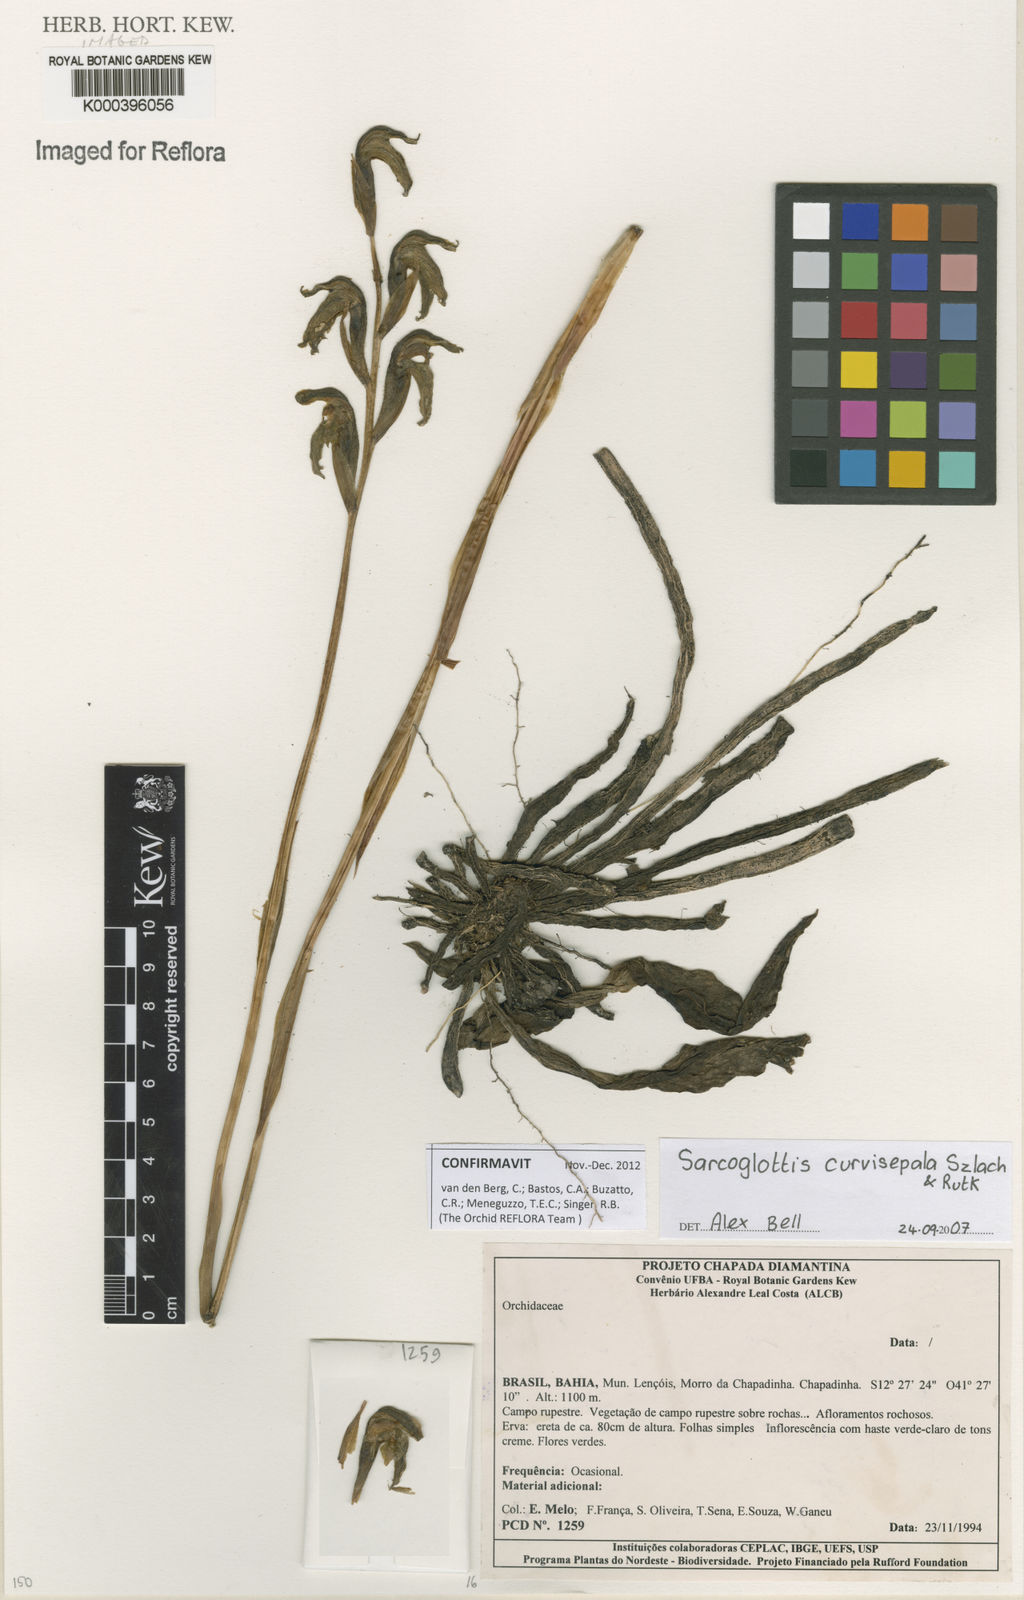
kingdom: Plantae
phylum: Tracheophyta
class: Liliopsida
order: Asparagales
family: Orchidaceae
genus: Sarcoglottis
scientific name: Sarcoglottis curvisepala
